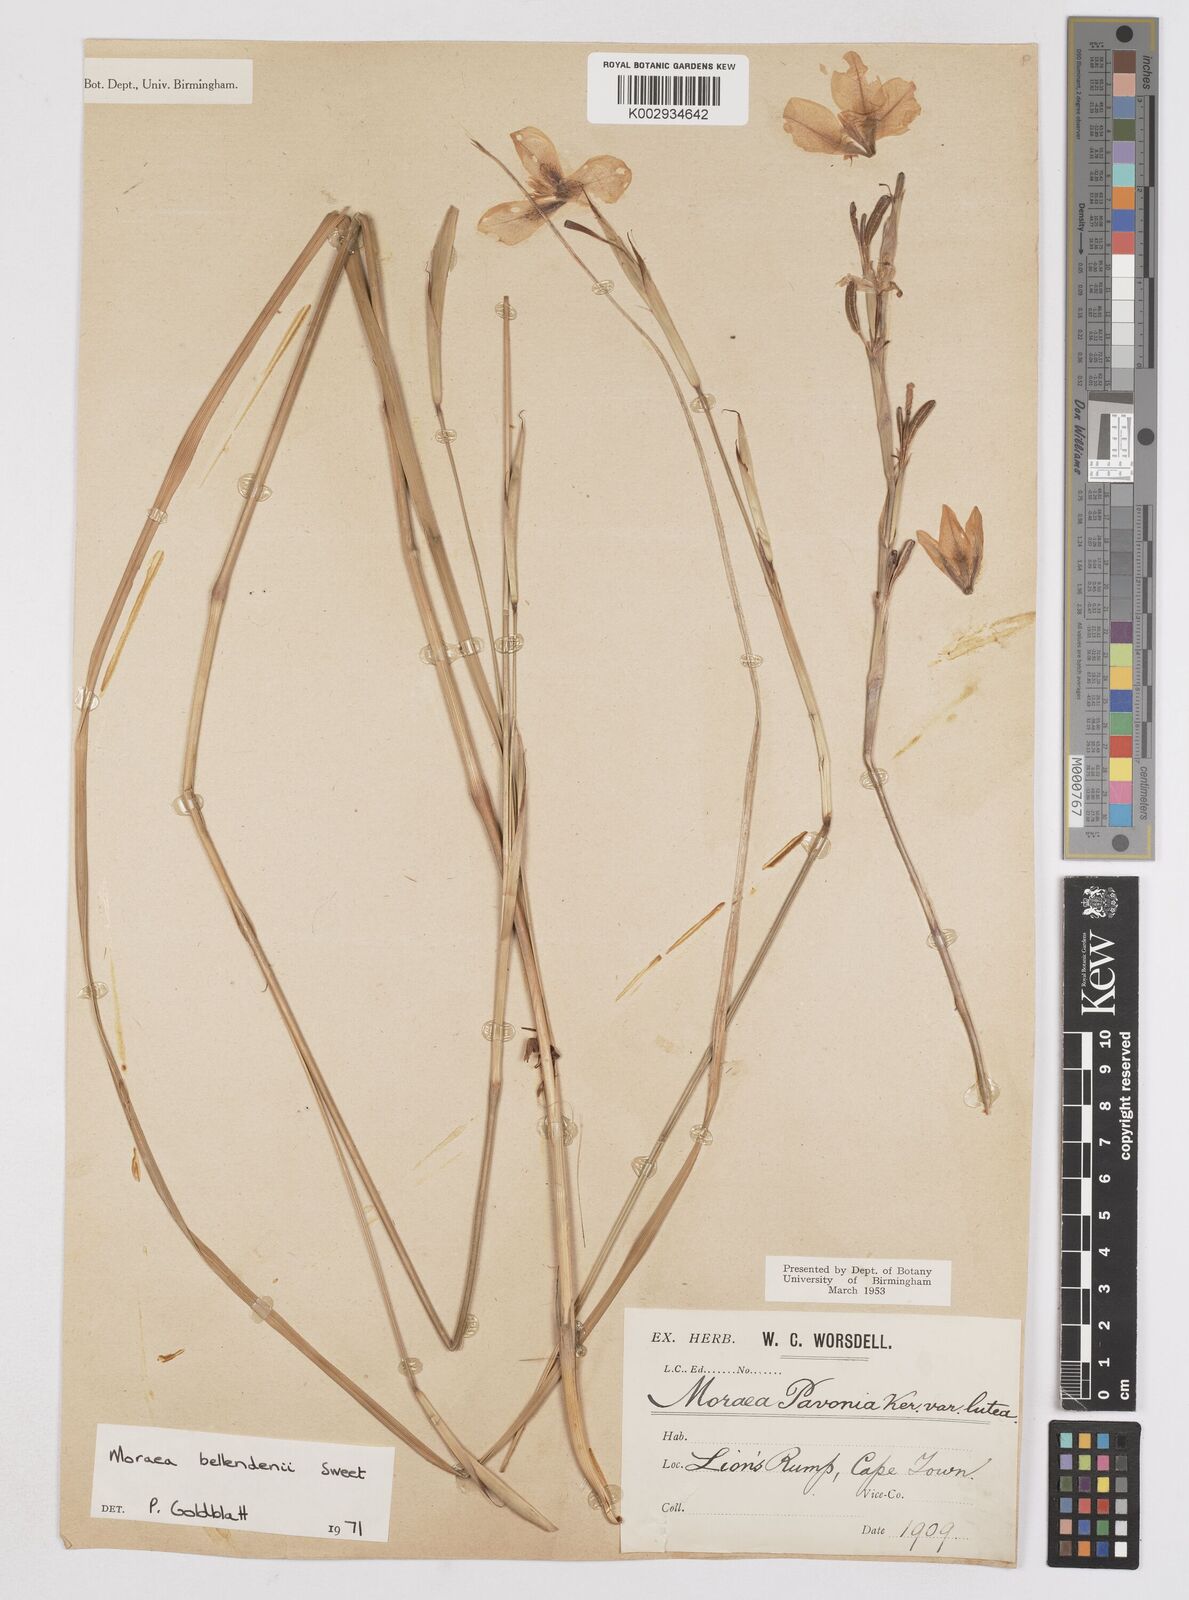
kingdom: Plantae
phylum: Tracheophyta
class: Liliopsida
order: Asparagales
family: Iridaceae
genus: Moraea
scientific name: Moraea bellendenii
